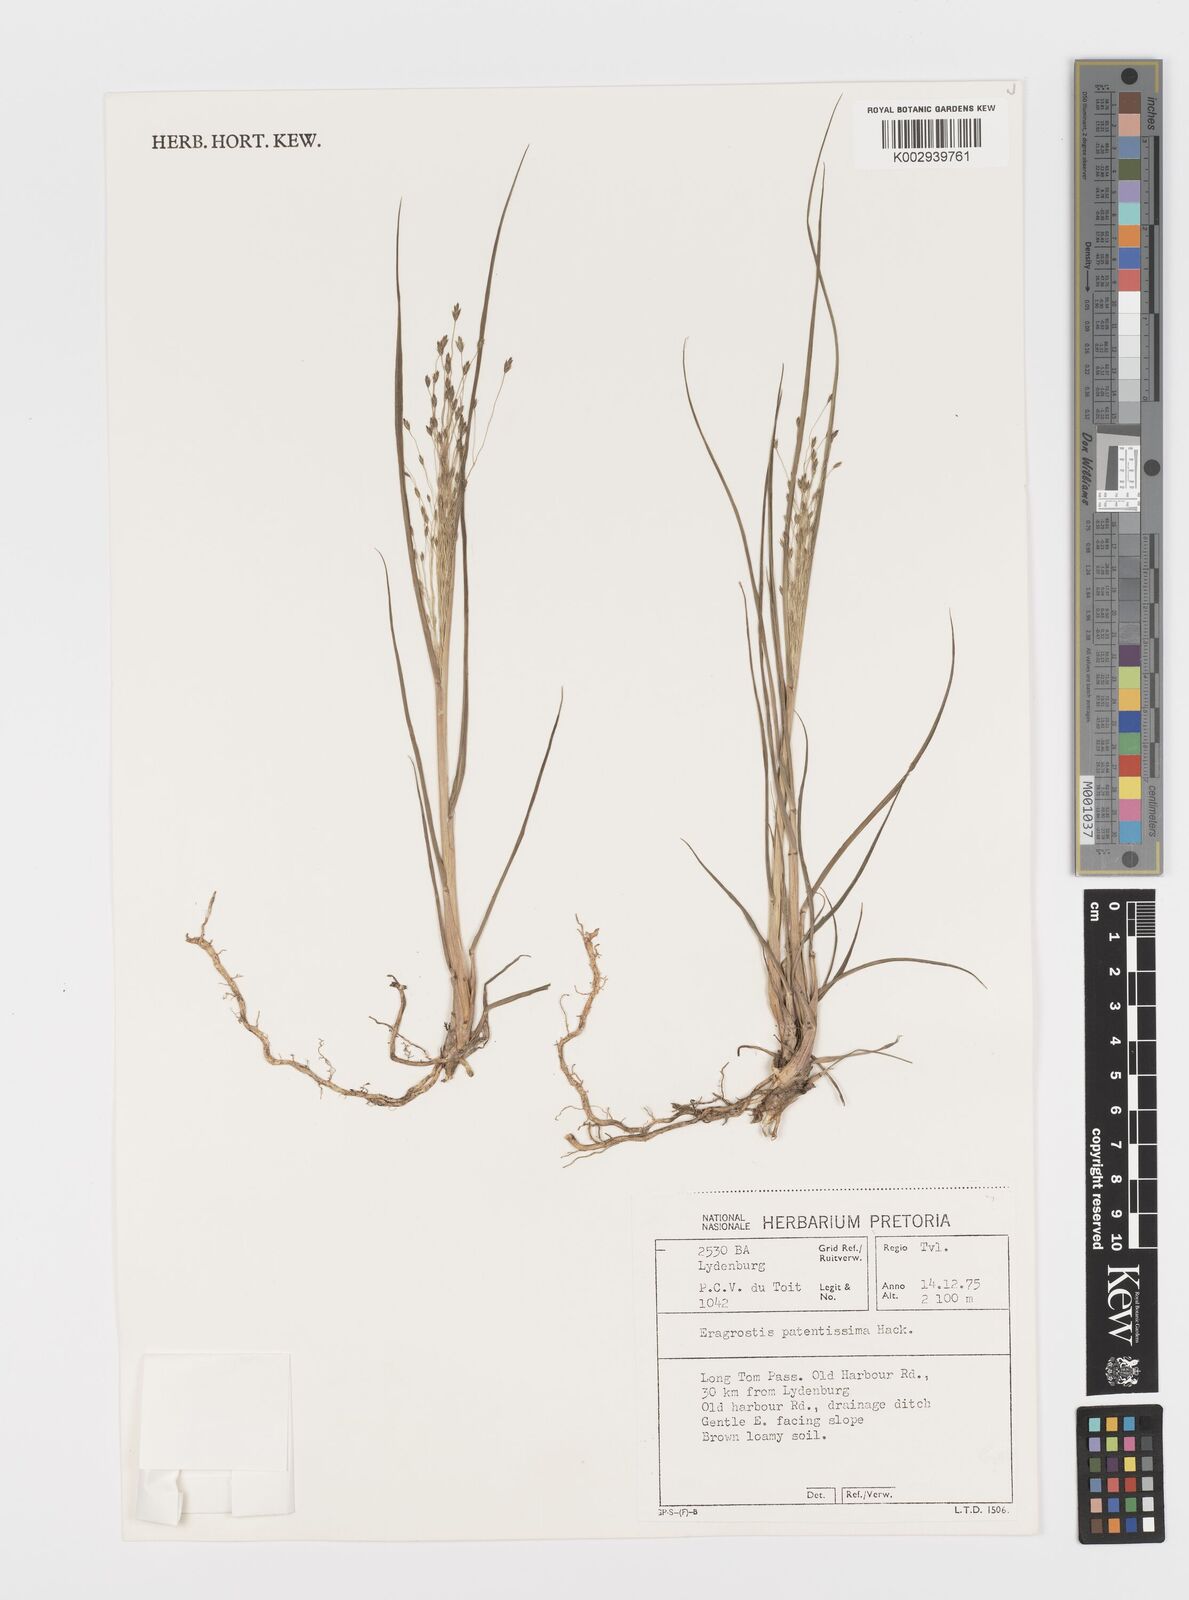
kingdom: Plantae
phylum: Tracheophyta
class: Liliopsida
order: Poales
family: Poaceae
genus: Eragrostis
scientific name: Eragrostis patentissima
